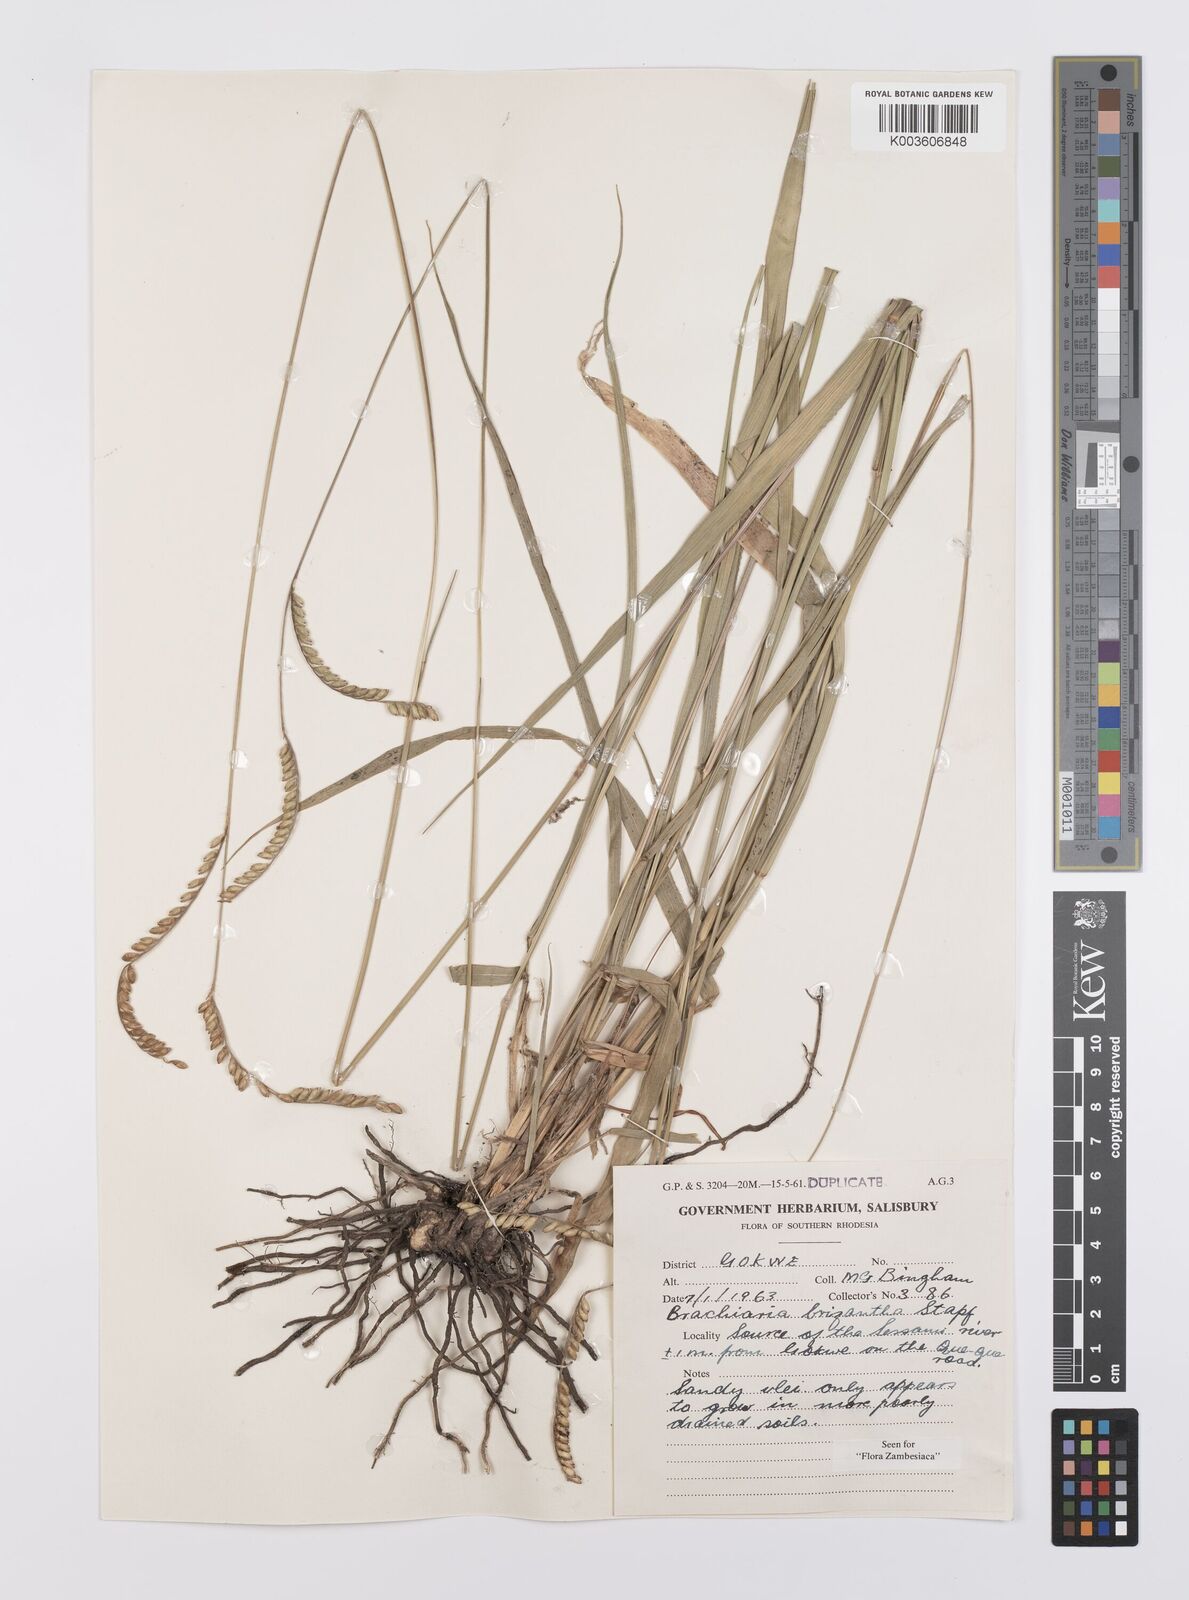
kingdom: Plantae
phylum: Tracheophyta
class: Liliopsida
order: Poales
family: Poaceae
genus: Urochloa
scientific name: Urochloa brizantha
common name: Palisade signalgrass
